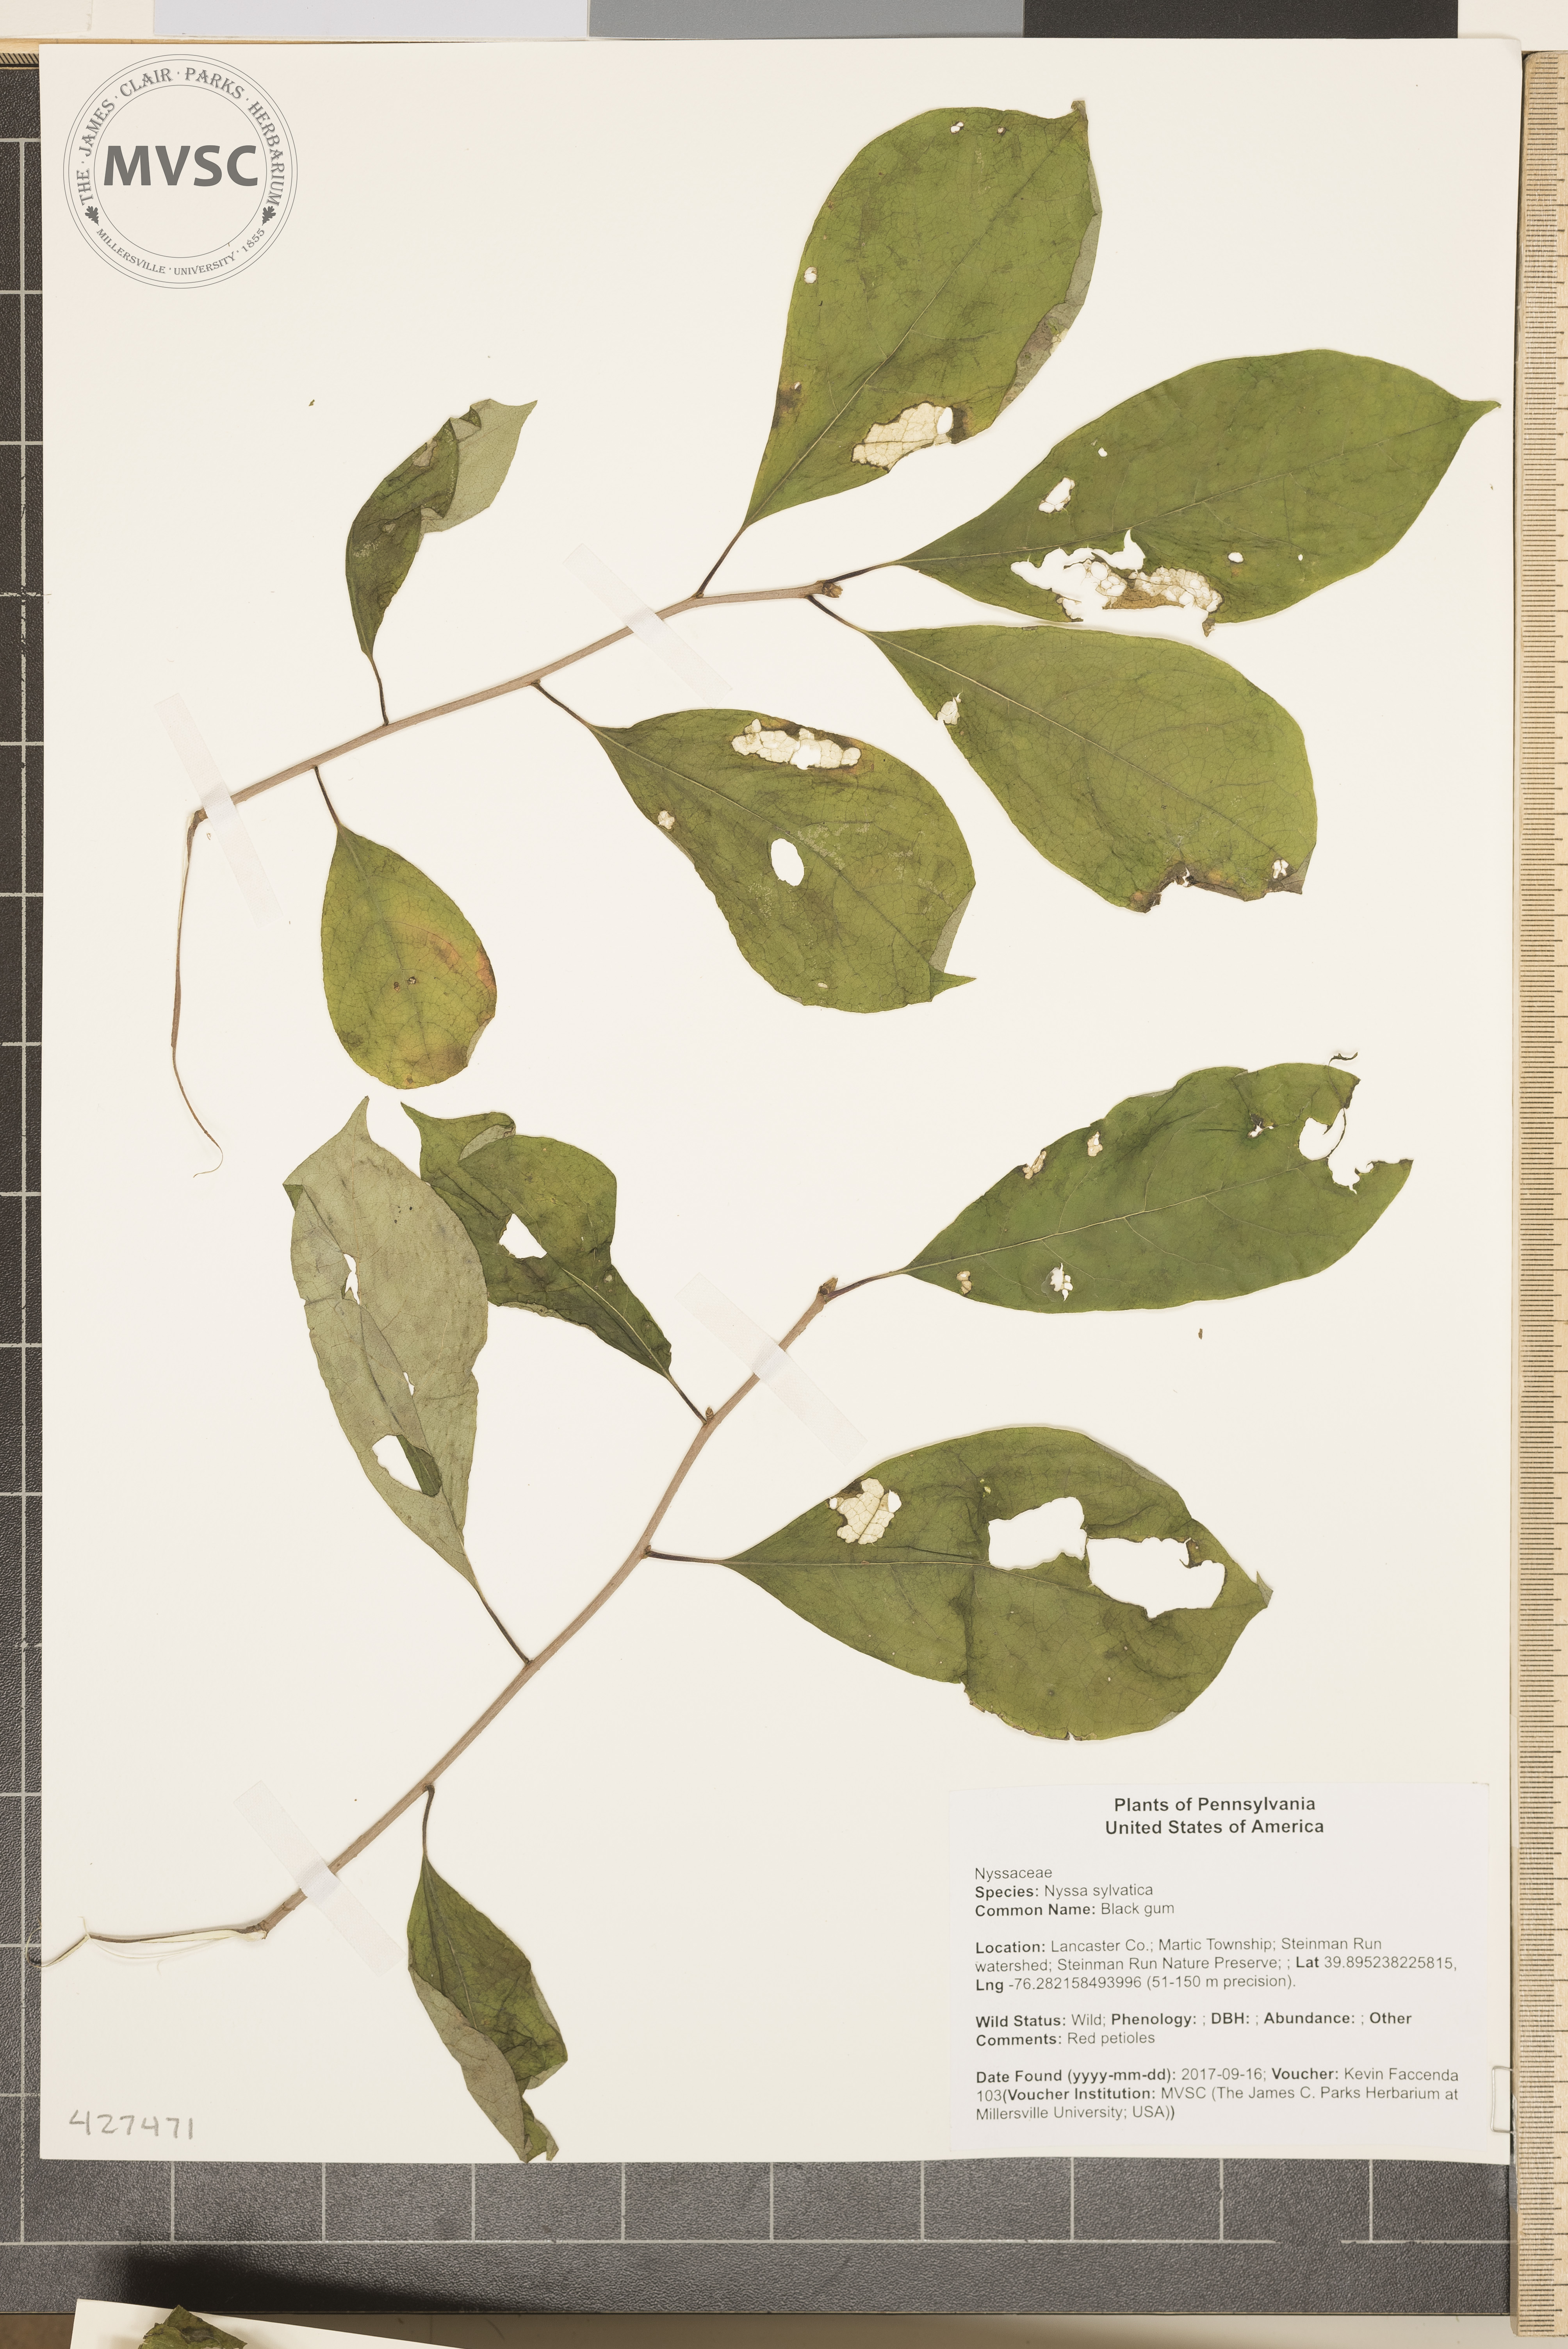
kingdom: Plantae
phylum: Tracheophyta
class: Magnoliopsida
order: Cornales
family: Nyssaceae
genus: Nyssa
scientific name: Nyssa sylvatica
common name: Black gum
